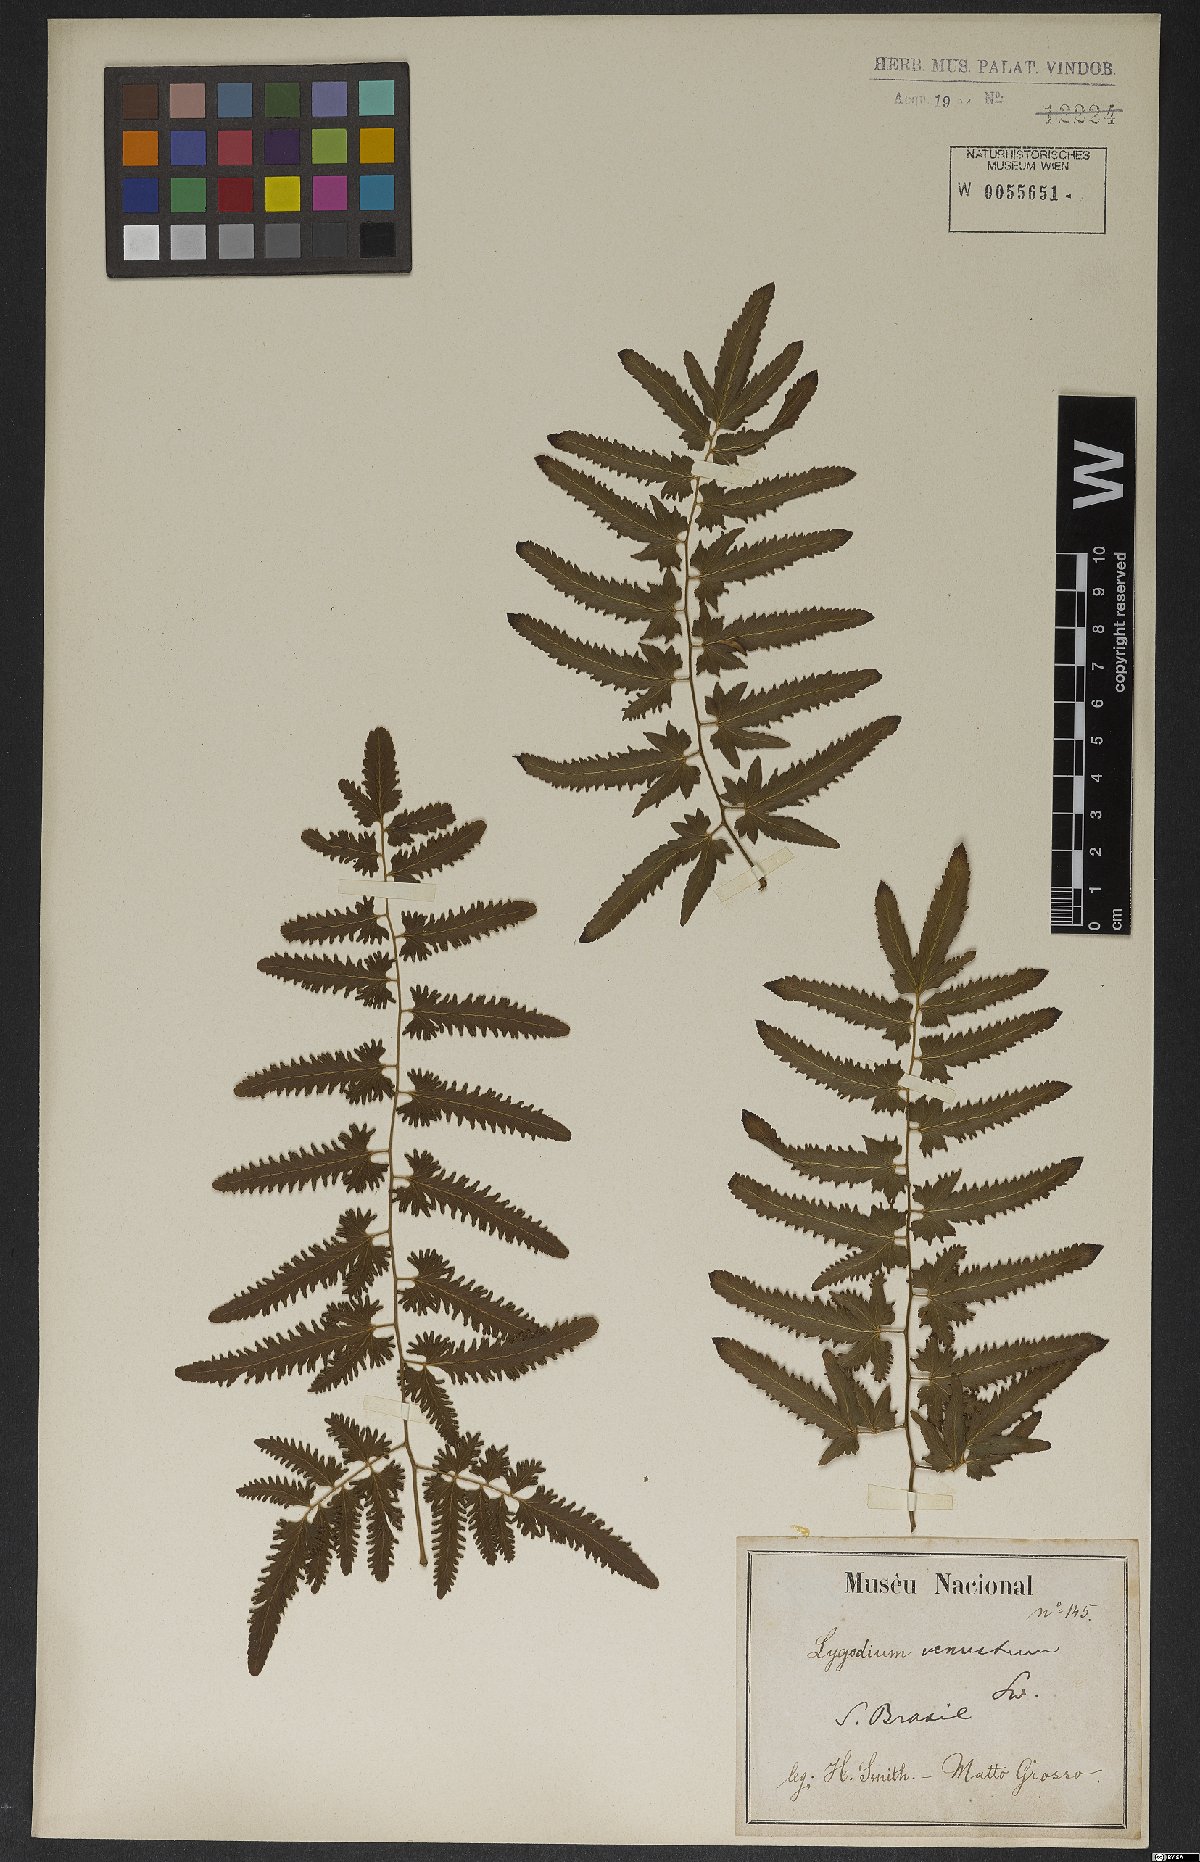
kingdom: Plantae
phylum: Tracheophyta
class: Polypodiopsida
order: Schizaeales
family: Lygodiaceae
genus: Lygodium
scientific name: Lygodium venustum
